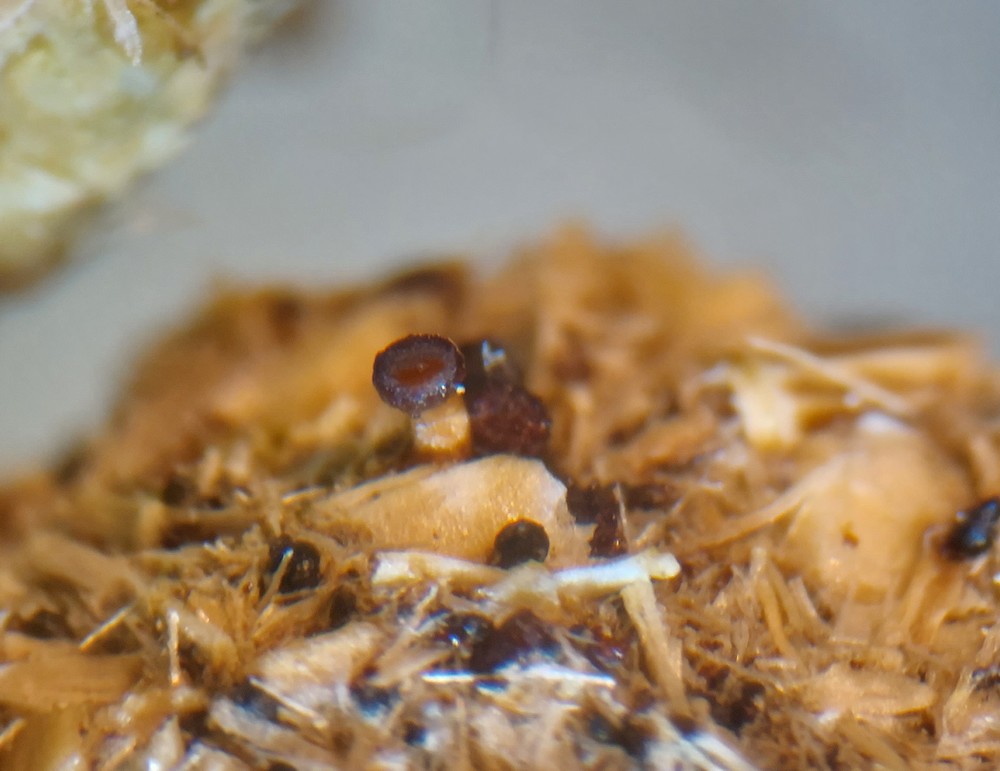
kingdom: Fungi
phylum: Ascomycota
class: Leotiomycetes
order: Helotiales
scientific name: Helotiales
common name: stilkskiveordenen
